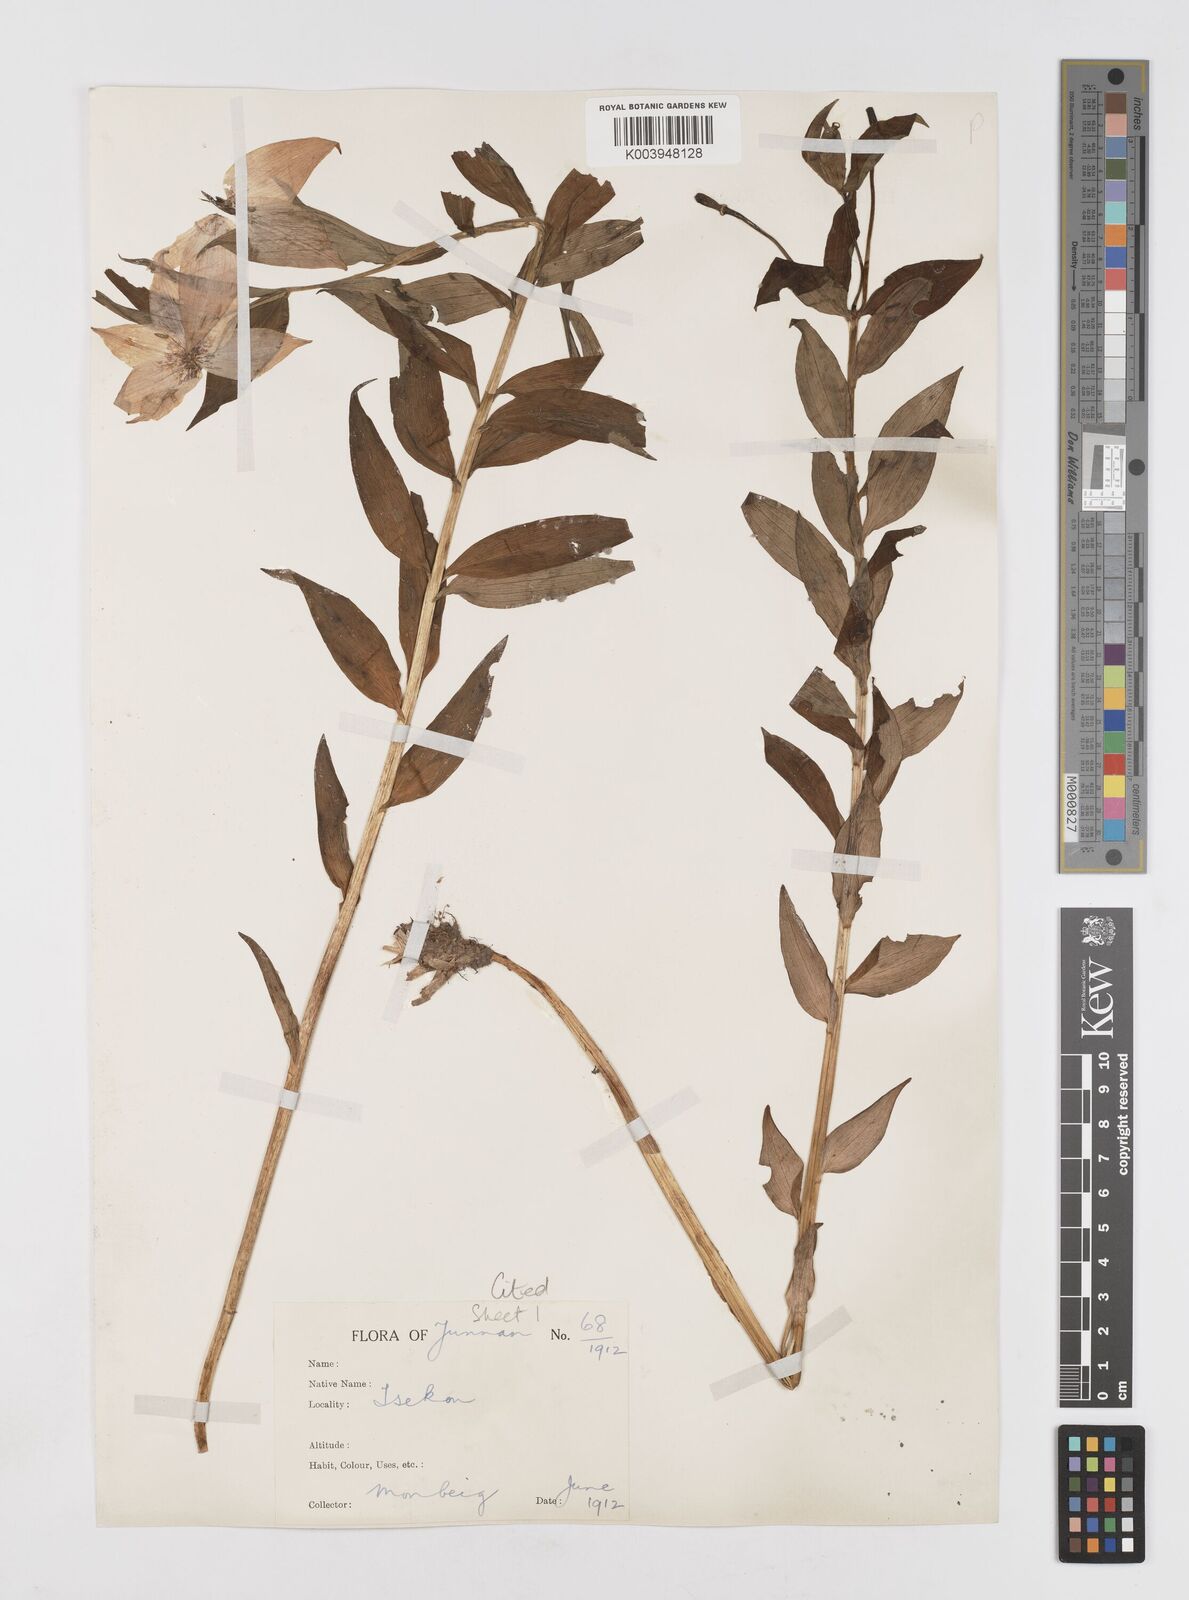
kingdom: Plantae
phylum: Tracheophyta
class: Liliopsida
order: Liliales
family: Liliaceae
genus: Lilium
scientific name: Lilium saluenense
